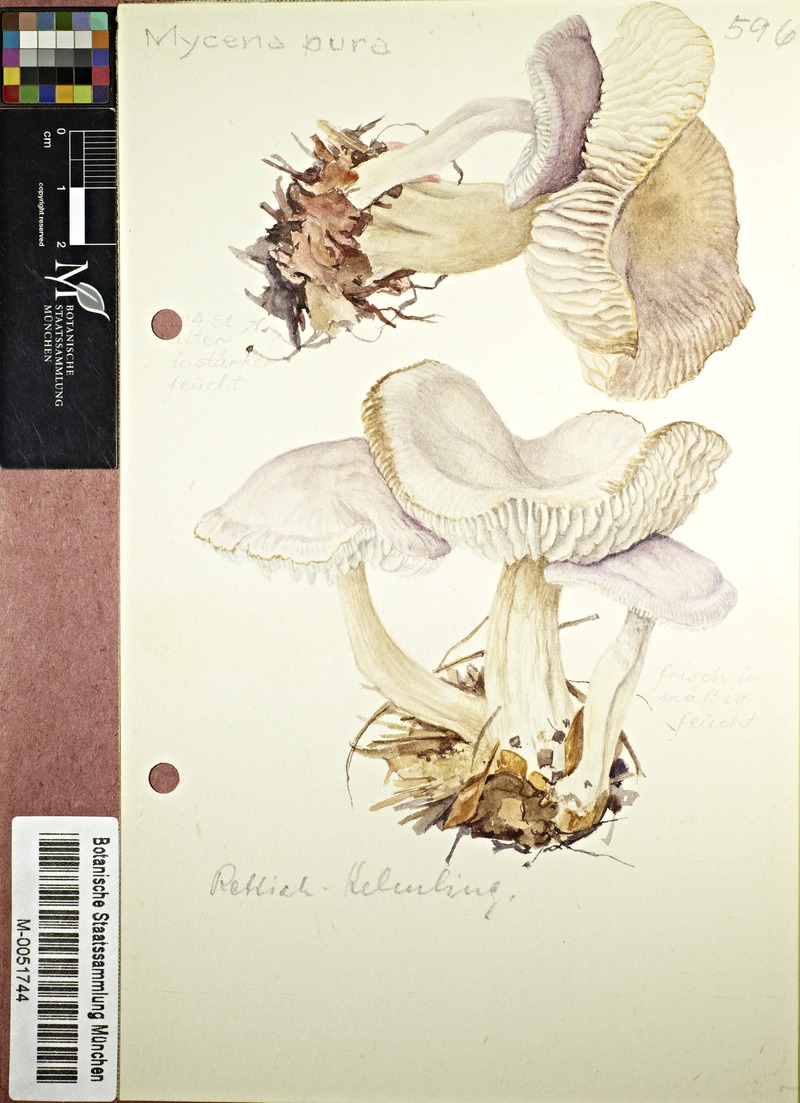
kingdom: Fungi
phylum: Basidiomycota
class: Agaricomycetes
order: Agaricales
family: Mycenaceae
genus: Mycena
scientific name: Mycena pura
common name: Lilac bonnet
